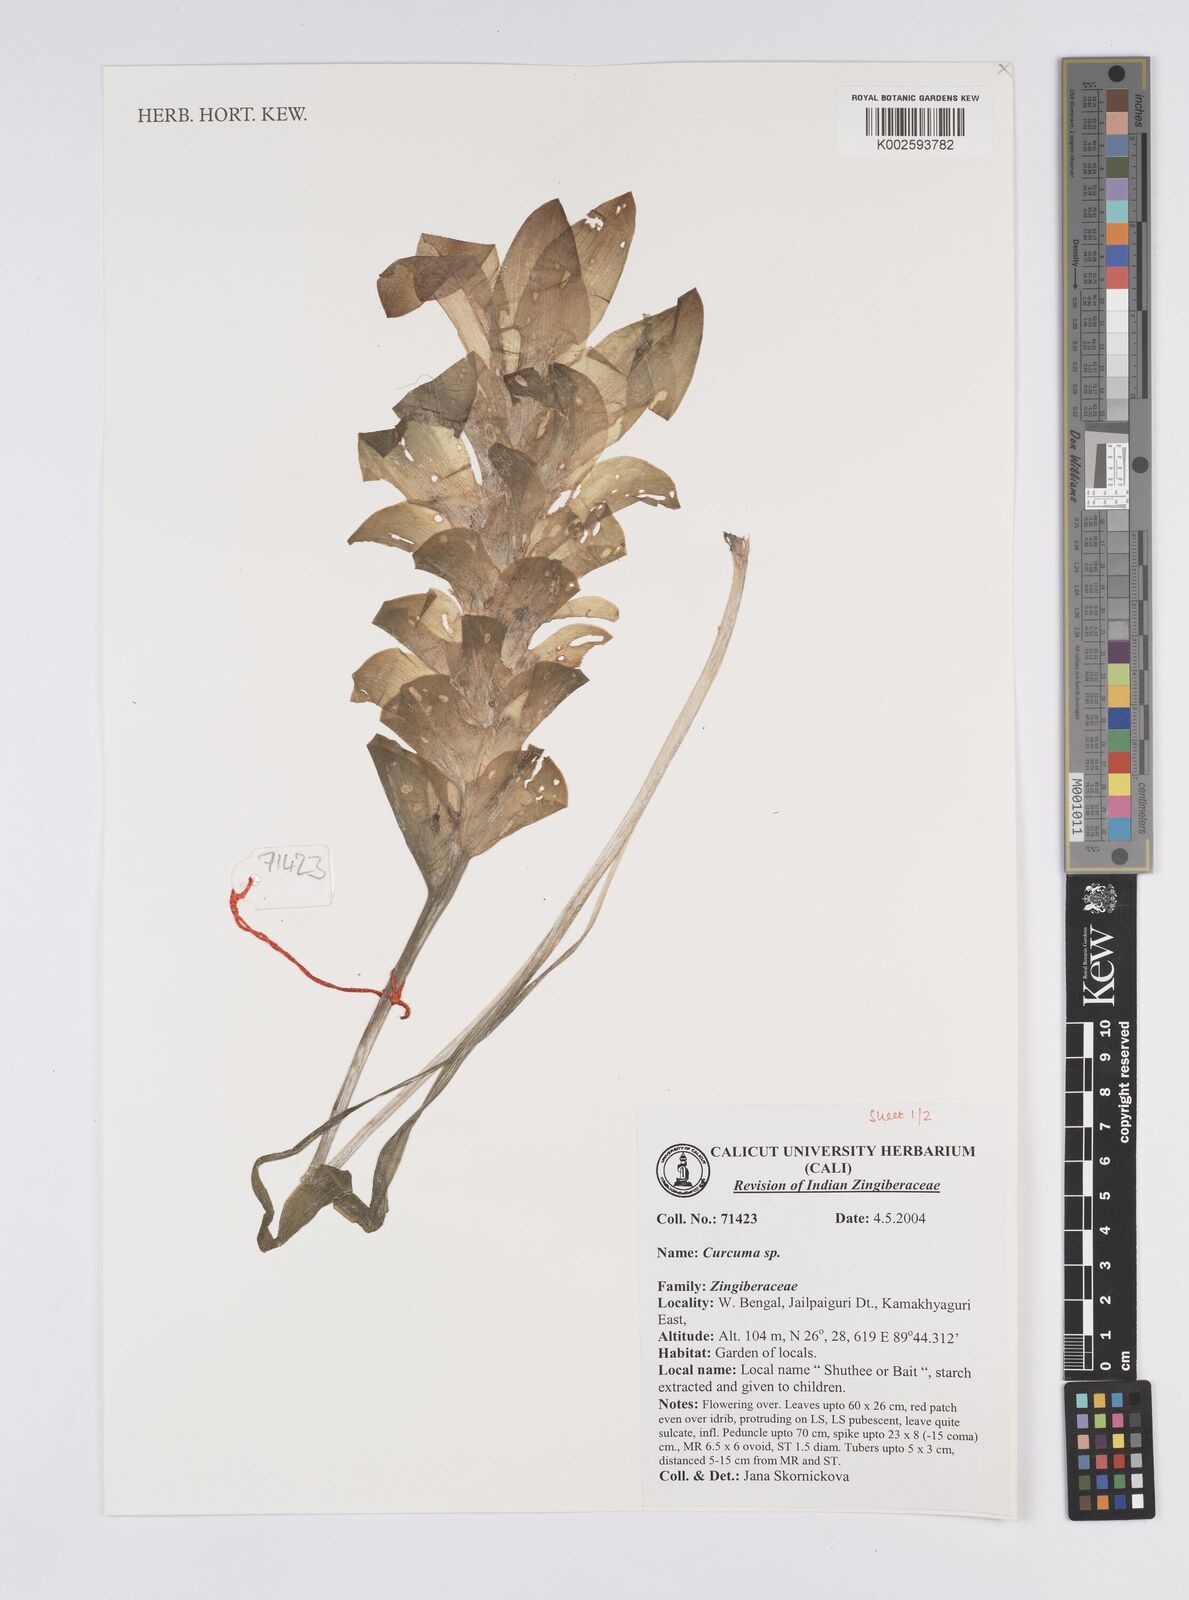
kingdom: Plantae
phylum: Tracheophyta
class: Liliopsida
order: Zingiberales
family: Zingiberaceae
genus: Curcuma
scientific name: Curcuma
